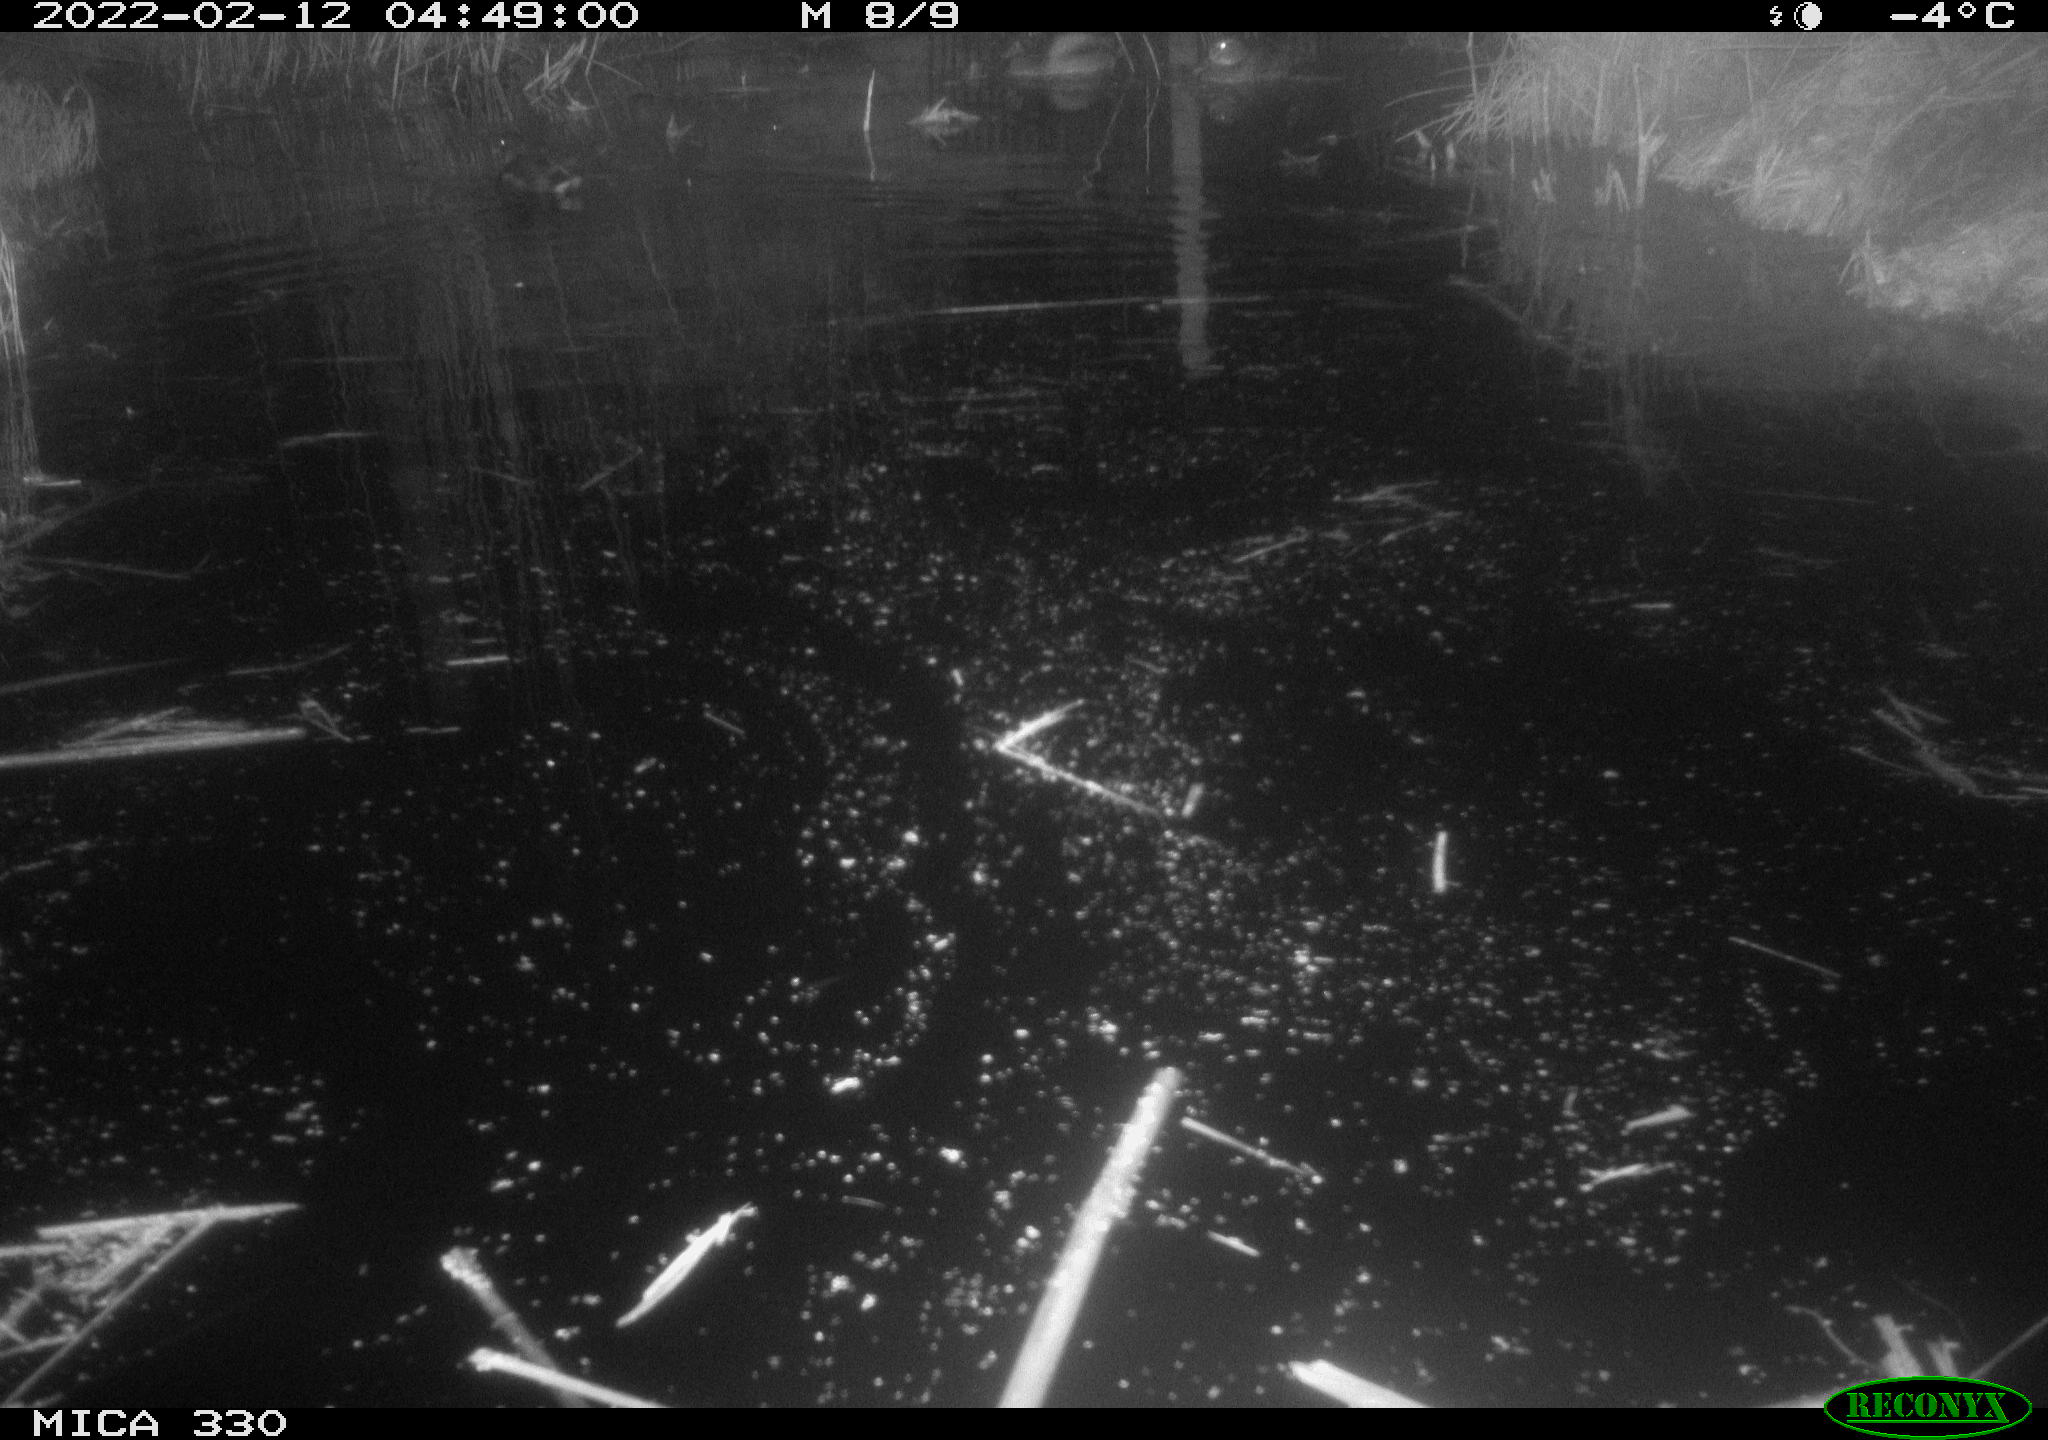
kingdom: Animalia
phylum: Chordata
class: Aves
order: Gruiformes
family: Rallidae
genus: Gallinula
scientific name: Gallinula chloropus
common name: Common moorhen
